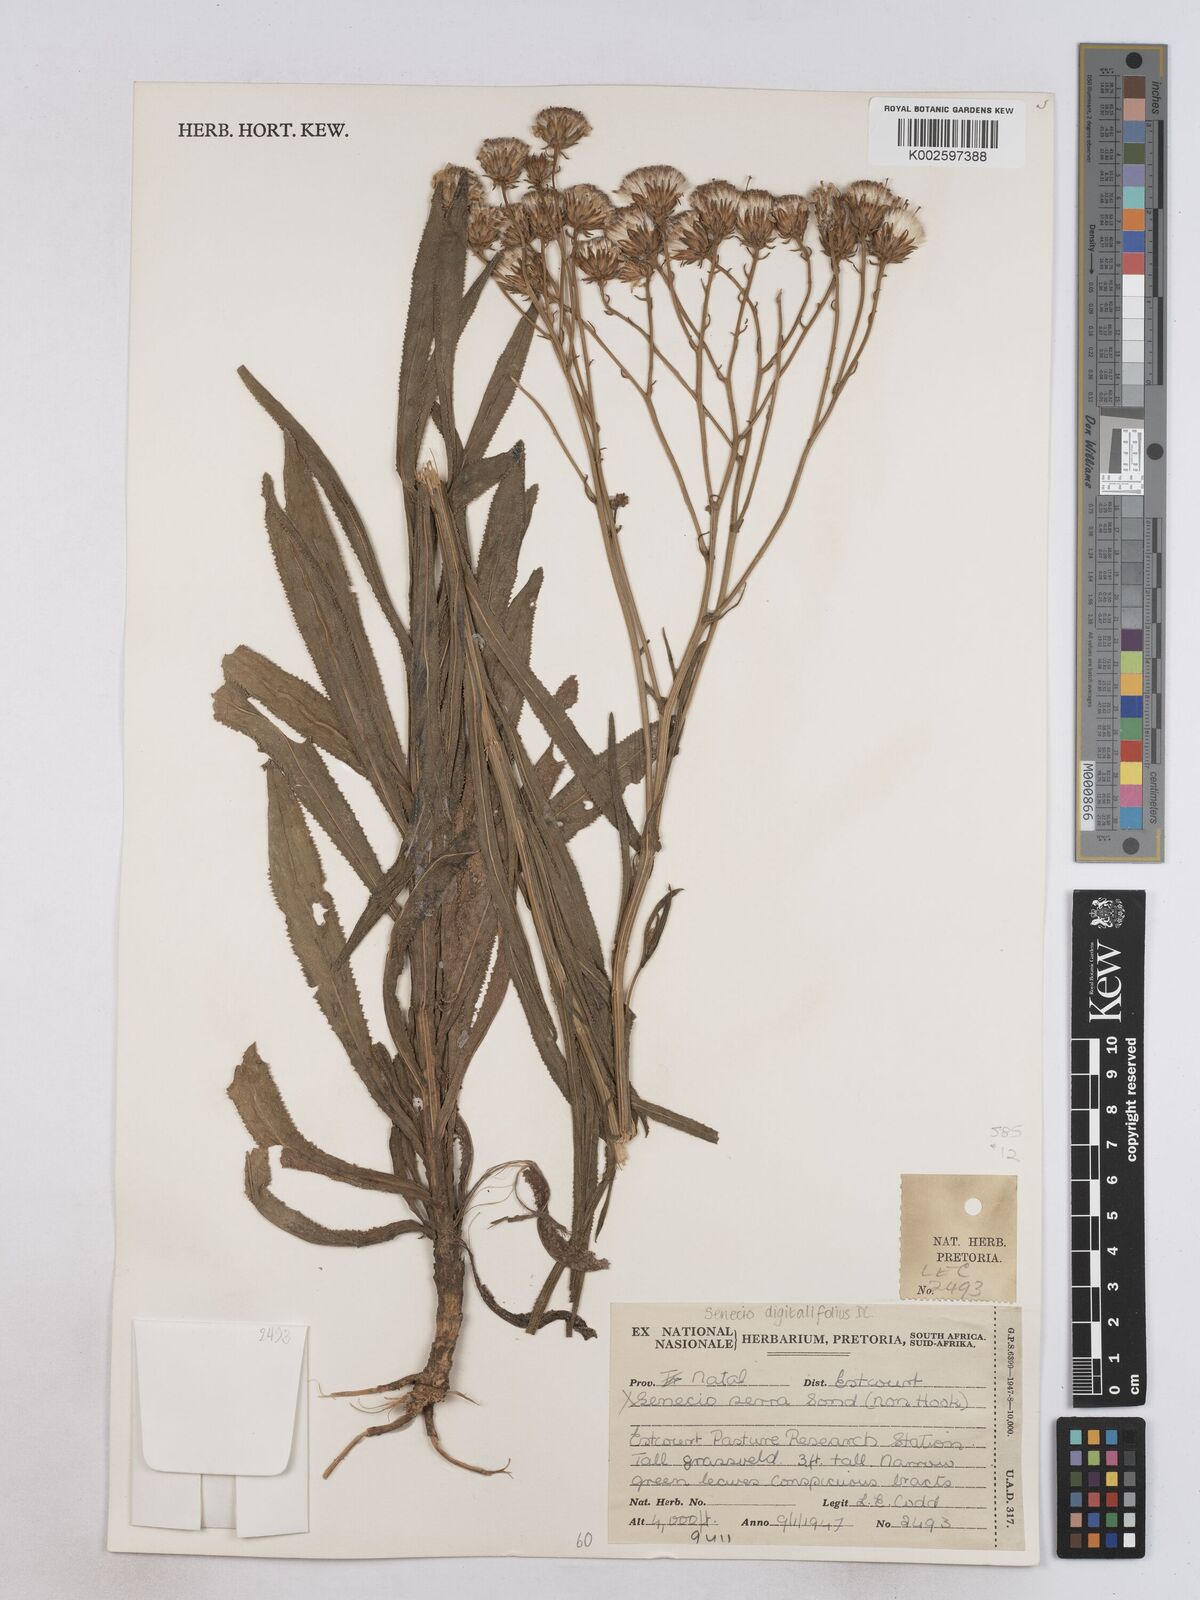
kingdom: Plantae
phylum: Tracheophyta
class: Magnoliopsida
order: Asterales
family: Asteraceae
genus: Senecio
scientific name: Senecio digitalifolius
